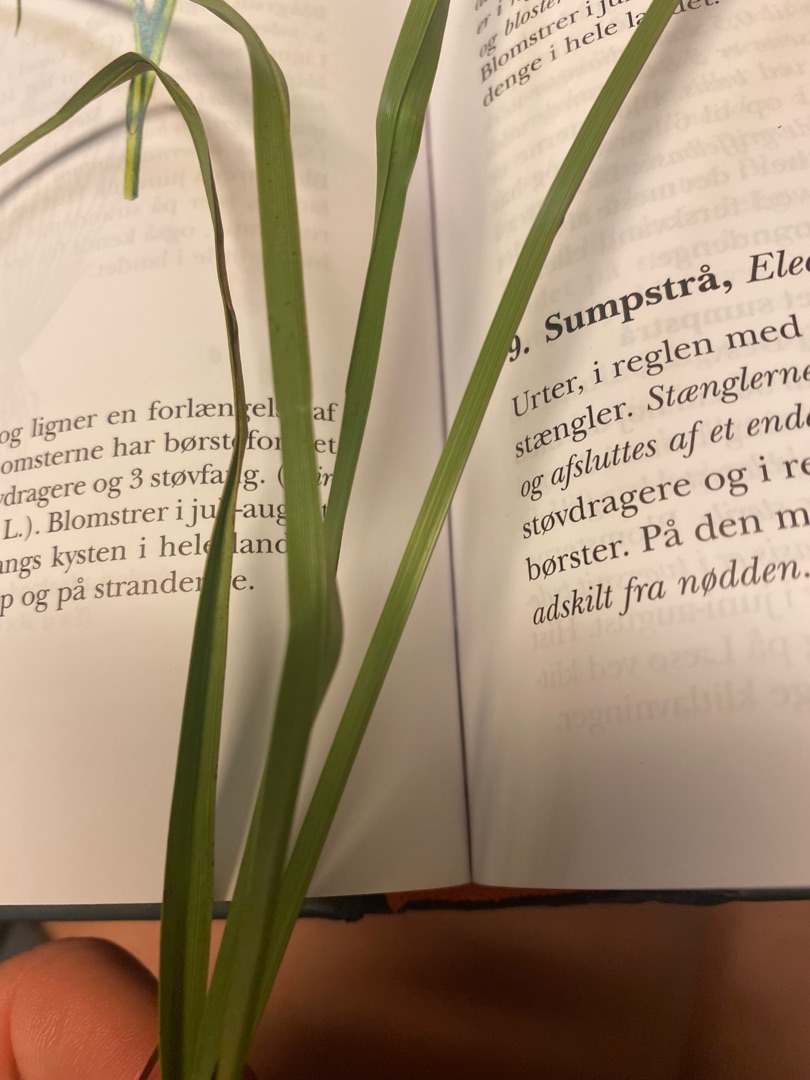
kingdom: Plantae
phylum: Tracheophyta
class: Liliopsida
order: Poales
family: Cyperaceae
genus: Bolboschoenus
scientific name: Bolboschoenus maritimus
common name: Strand-kogleaks
